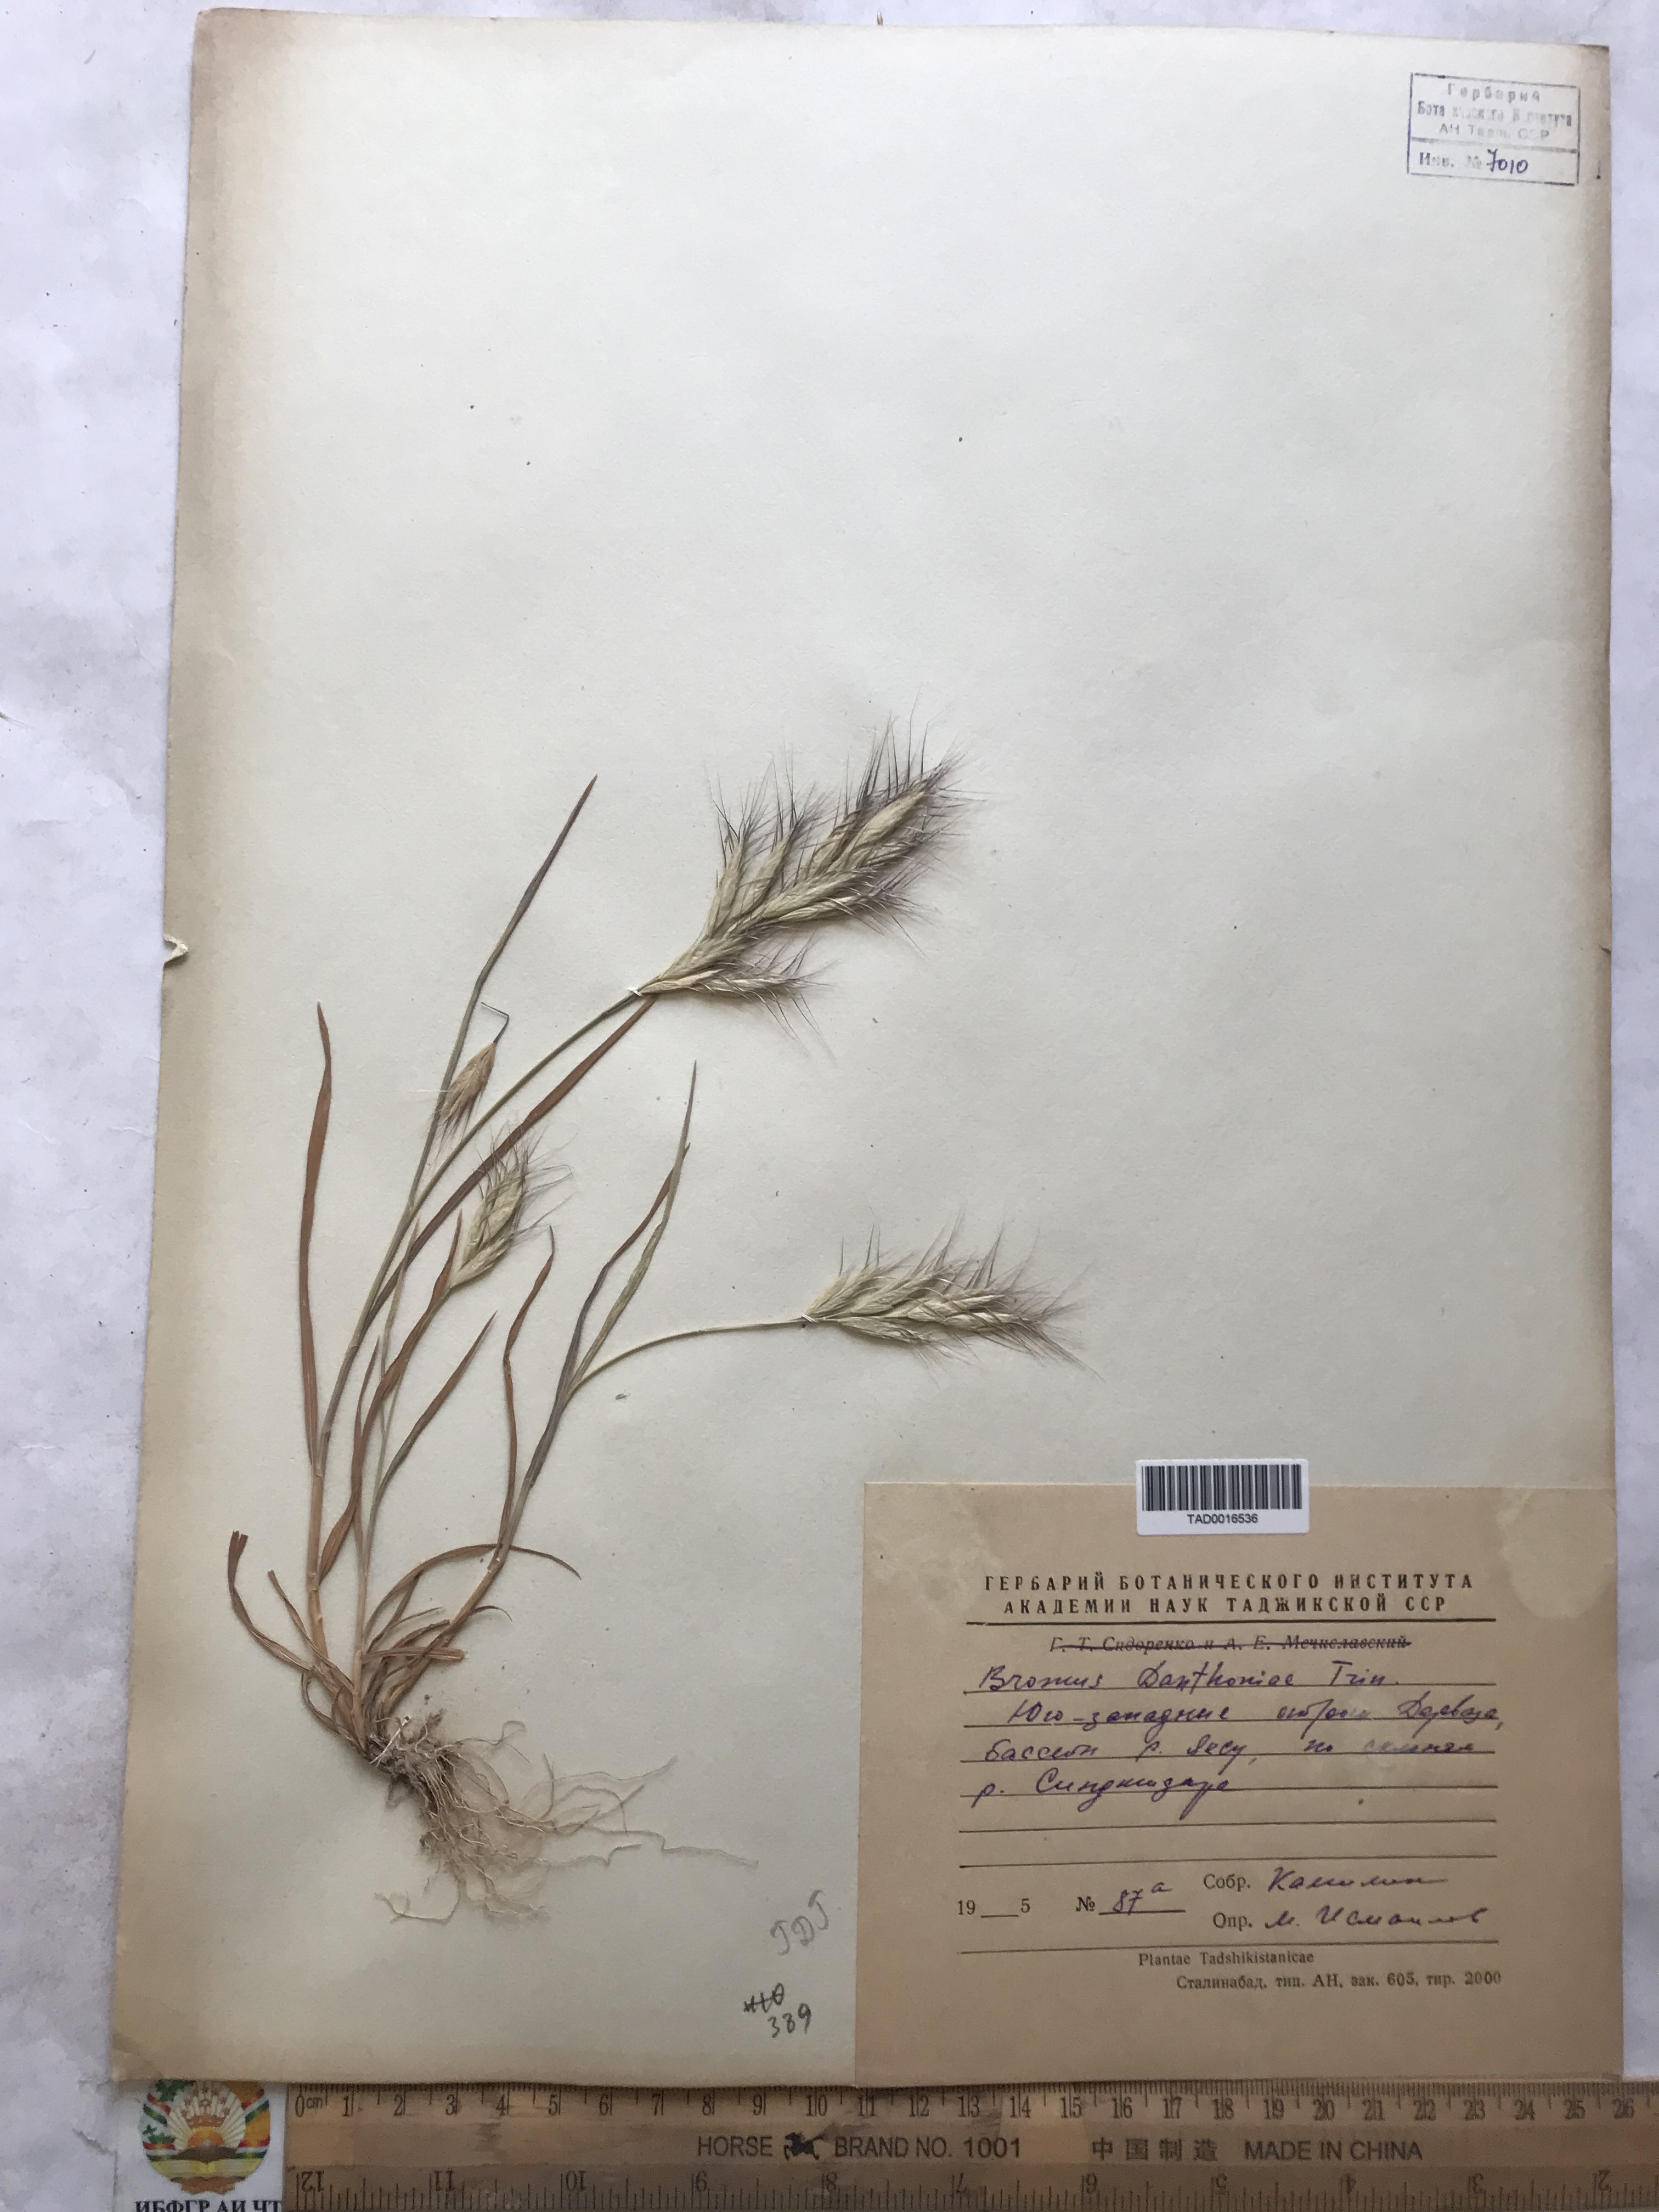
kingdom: Plantae
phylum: Tracheophyta
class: Liliopsida
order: Poales
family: Poaceae
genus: Bromus
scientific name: Bromus danthoniae
